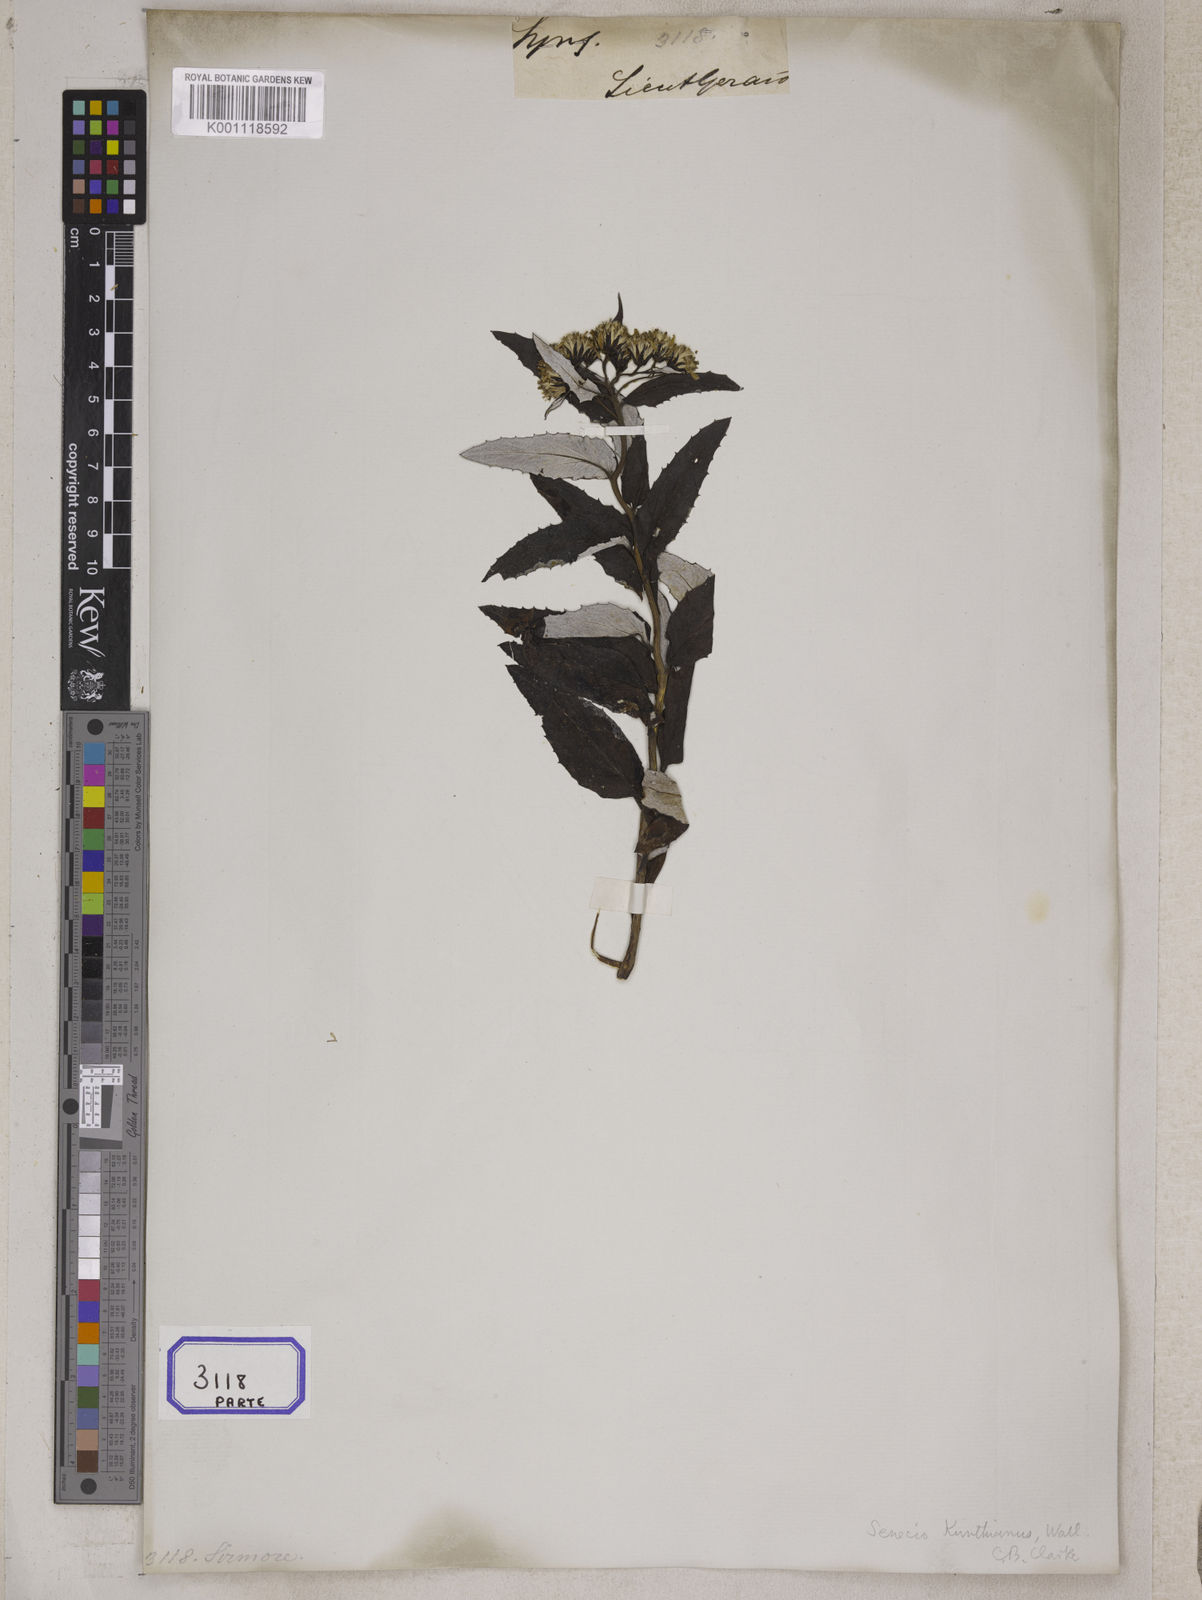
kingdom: Plantae
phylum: Tracheophyta
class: Magnoliopsida
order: Asterales
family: Asteraceae
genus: Synotis
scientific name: Synotis kunthiana
